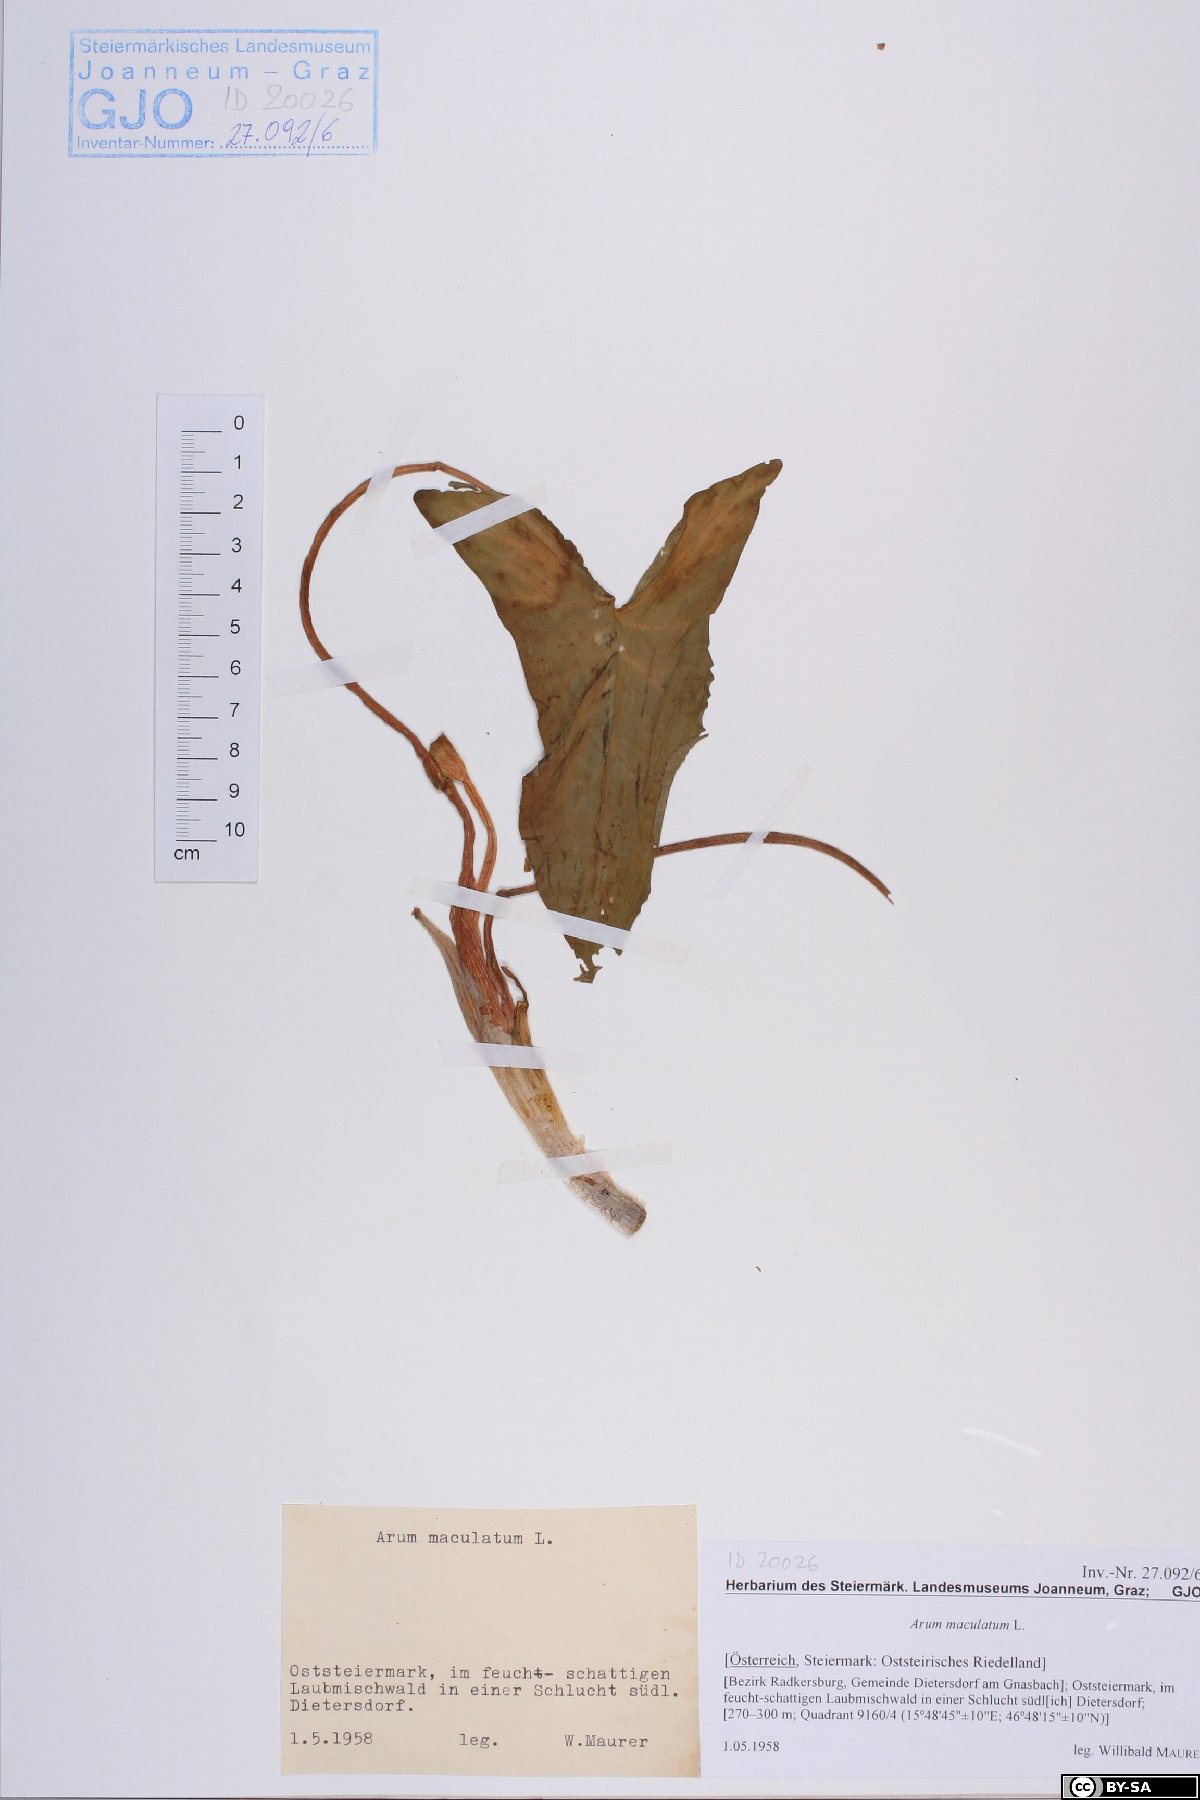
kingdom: Plantae
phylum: Tracheophyta
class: Liliopsida
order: Alismatales
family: Araceae
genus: Arum
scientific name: Arum maculatum
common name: Lords-and-ladies
